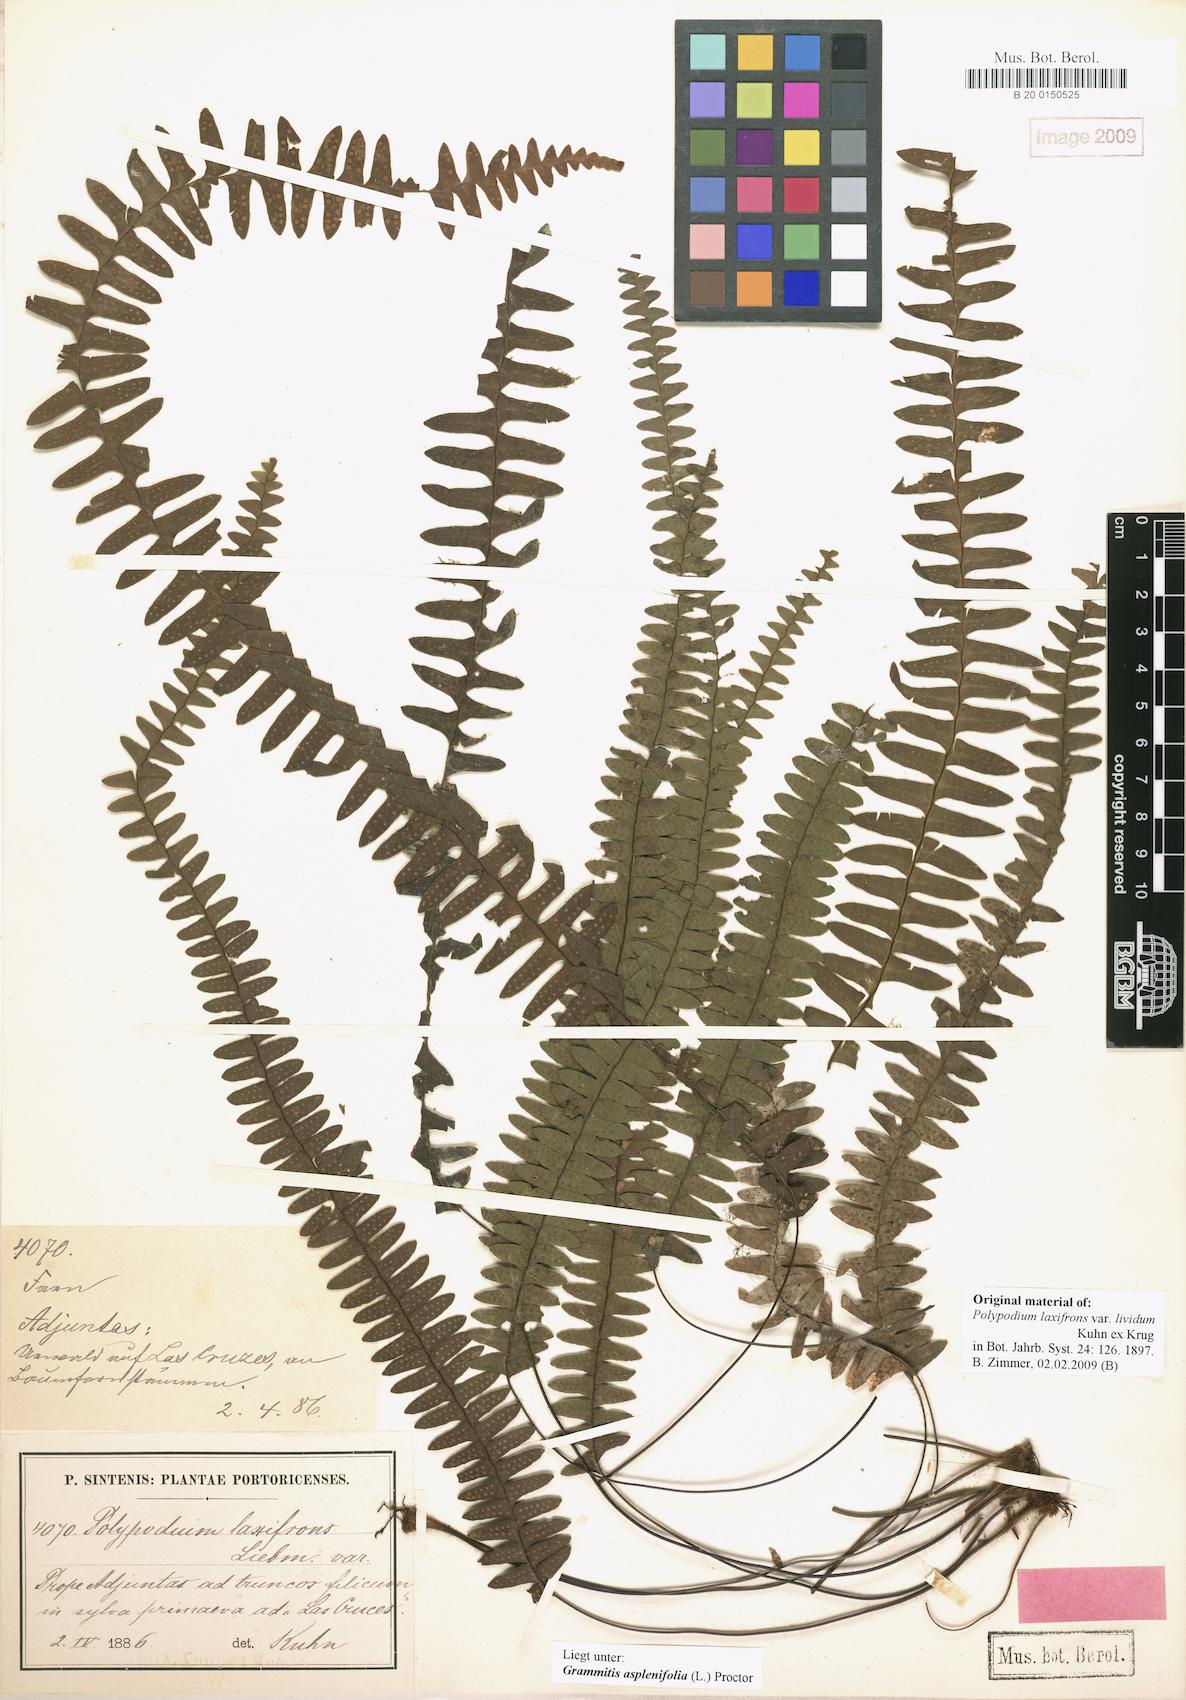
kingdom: Plantae
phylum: Tracheophyta
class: Polypodiopsida
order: Polypodiales
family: Polypodiaceae
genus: Terpsichore
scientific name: Terpsichore asplenifolia
